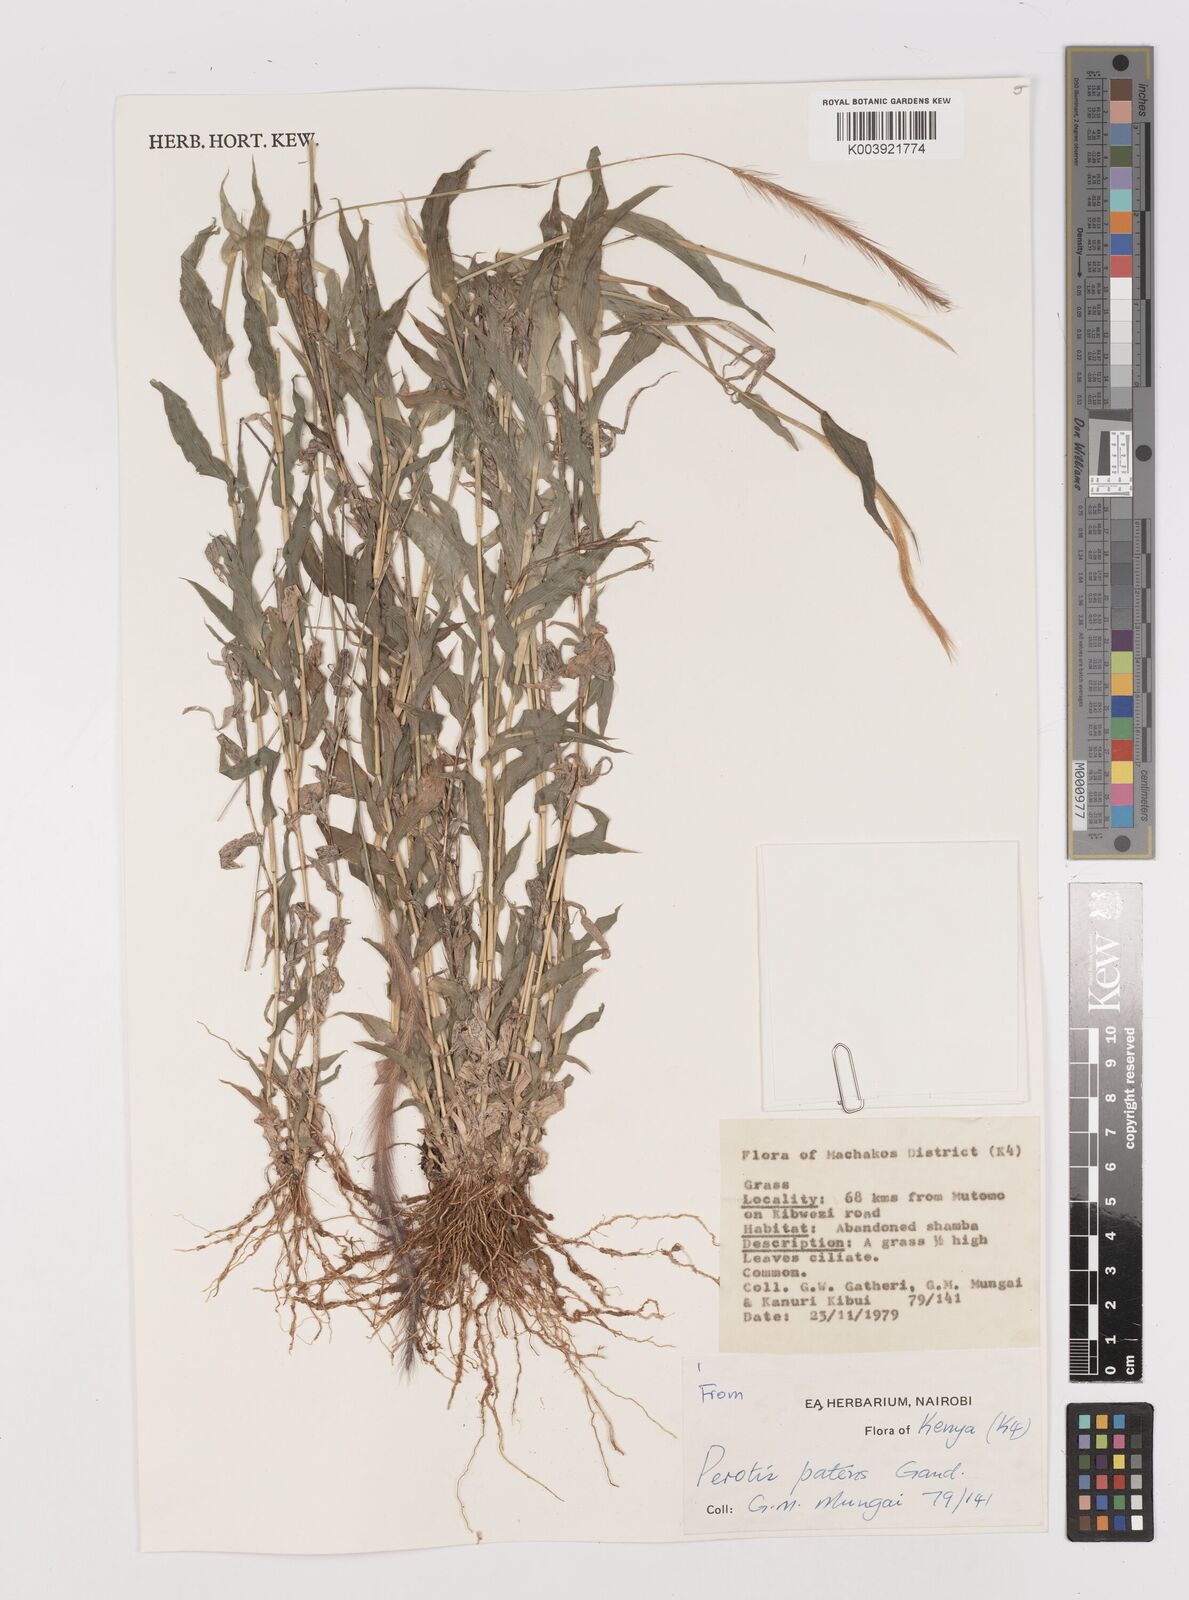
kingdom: Plantae
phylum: Tracheophyta
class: Liliopsida
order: Poales
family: Poaceae
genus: Perotis
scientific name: Perotis patens
